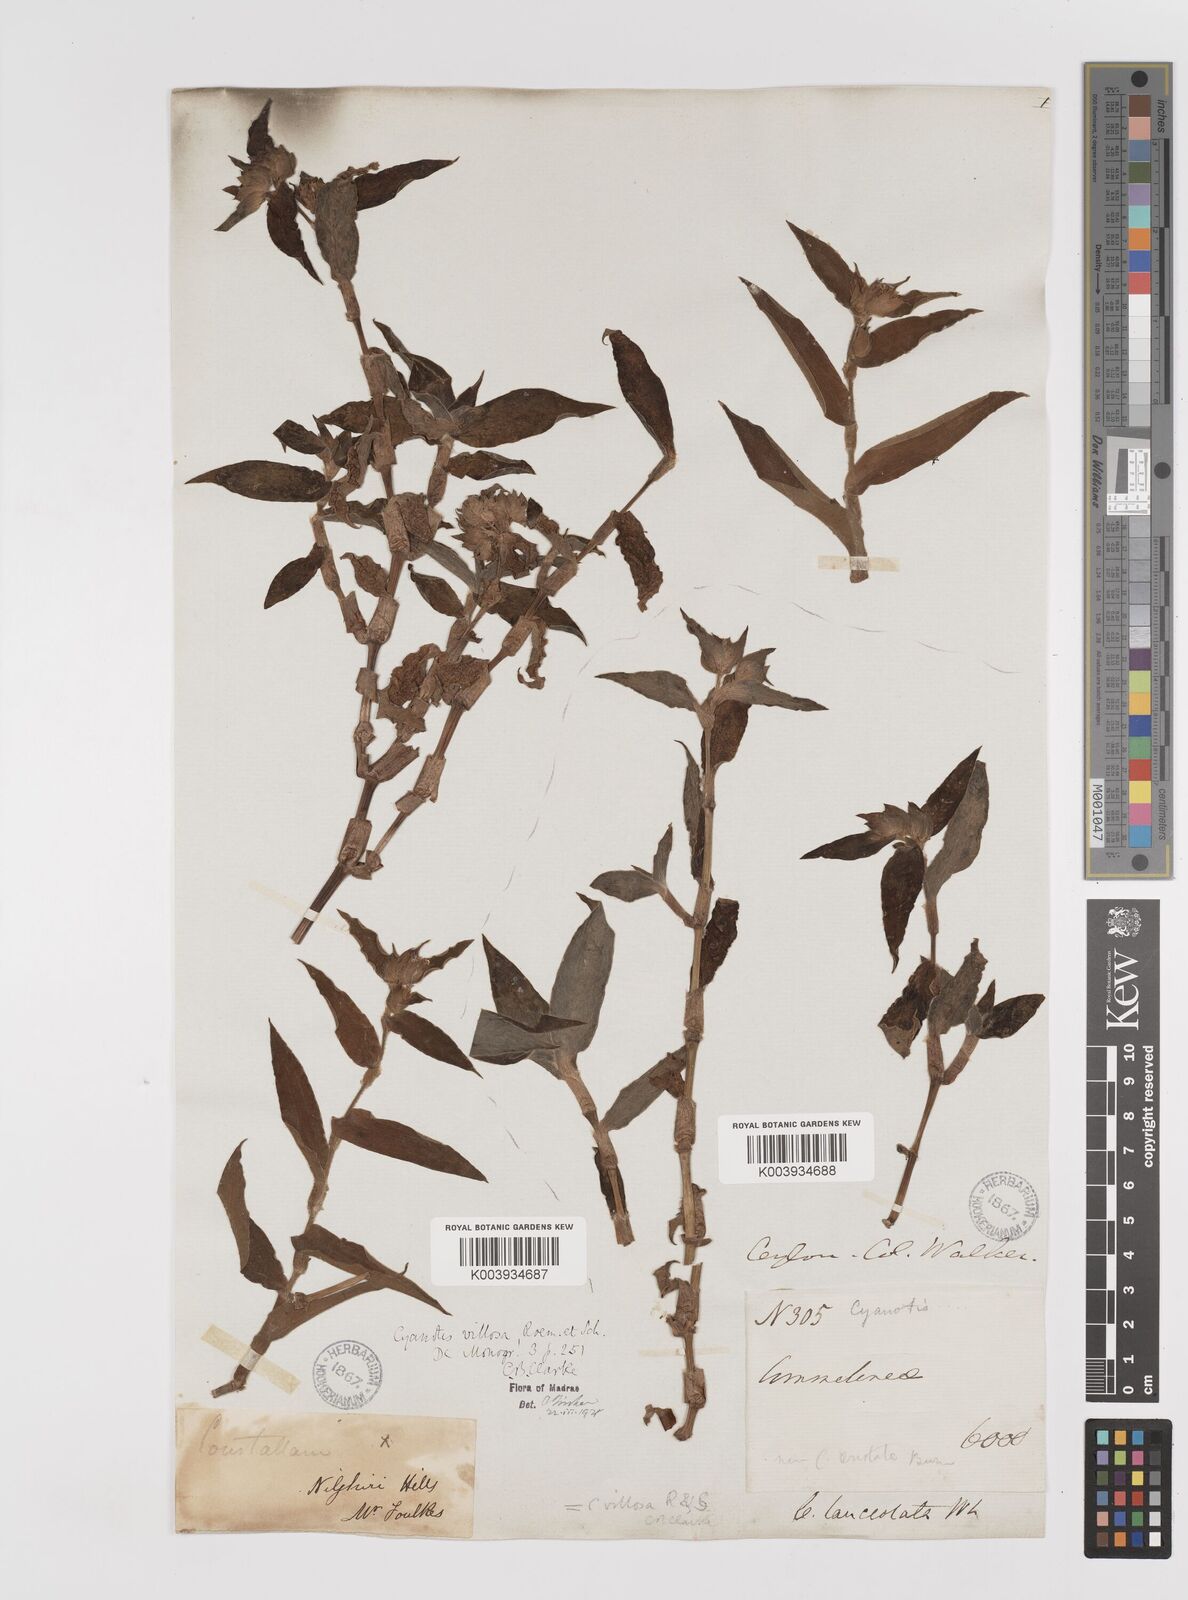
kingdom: Plantae
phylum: Tracheophyta
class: Liliopsida
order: Commelinales
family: Commelinaceae
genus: Cyanotis
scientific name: Cyanotis villosa
